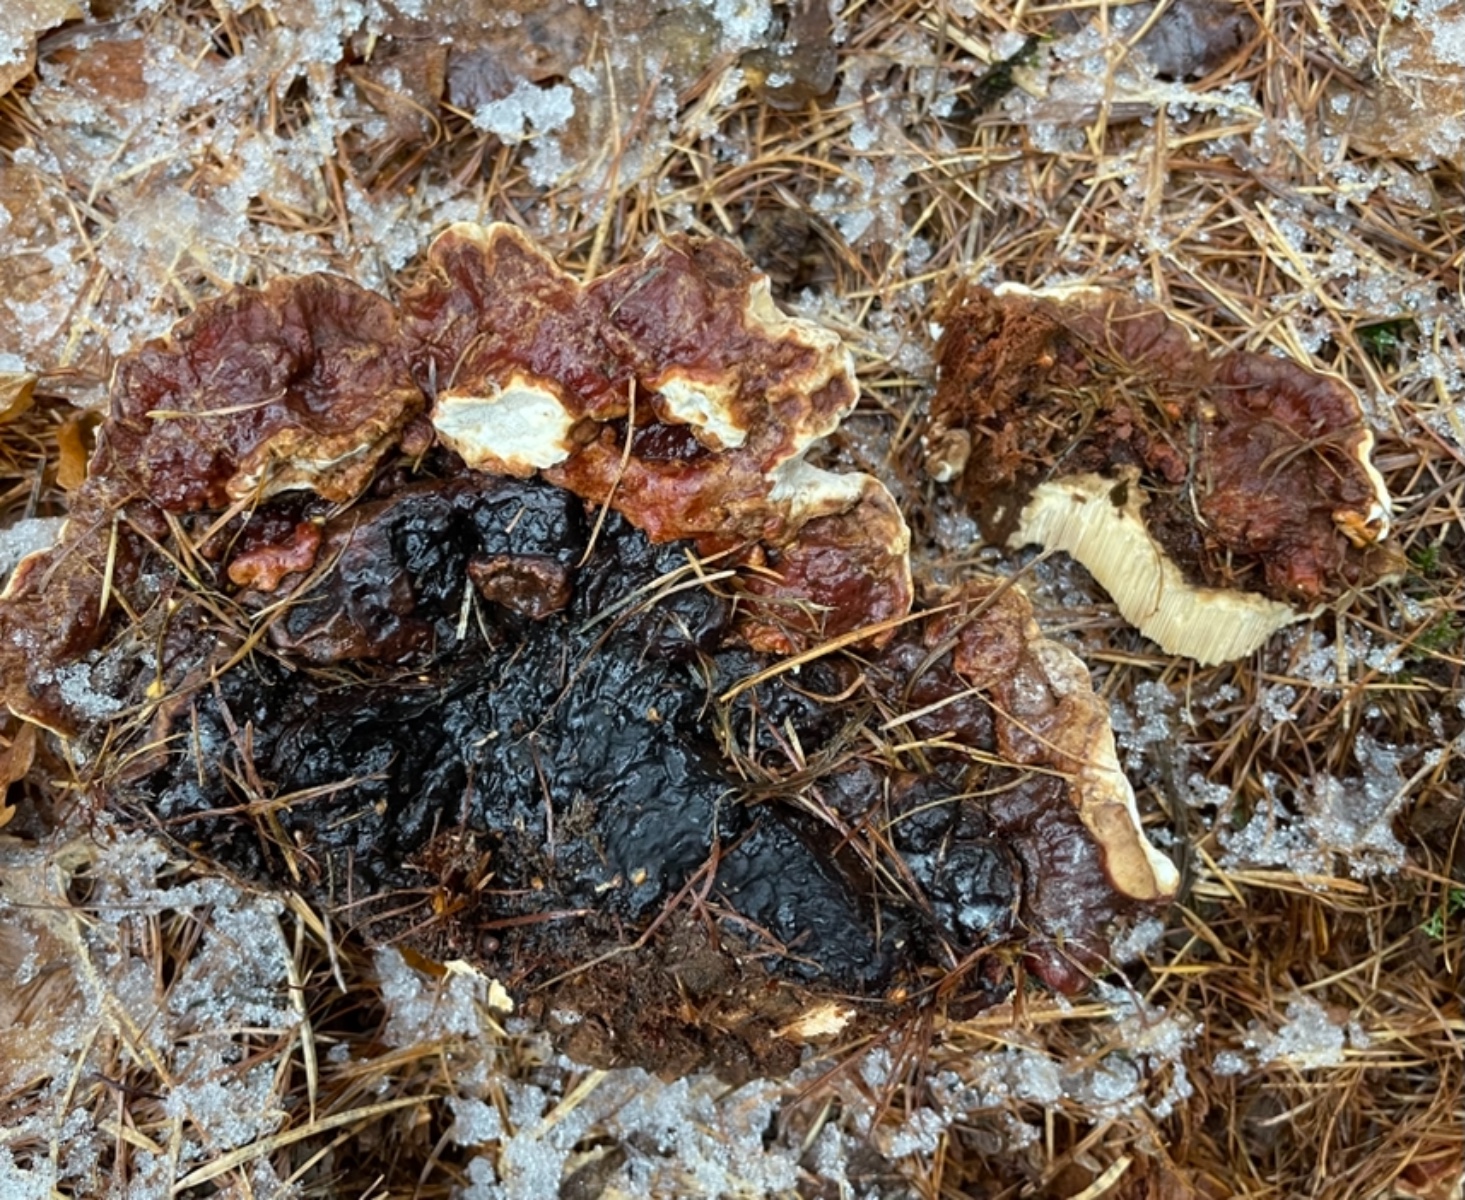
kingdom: Fungi
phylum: Basidiomycota
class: Agaricomycetes
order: Russulales
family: Bondarzewiaceae
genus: Heterobasidion
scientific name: Heterobasidion annosum
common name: almindelig rodfordærver
